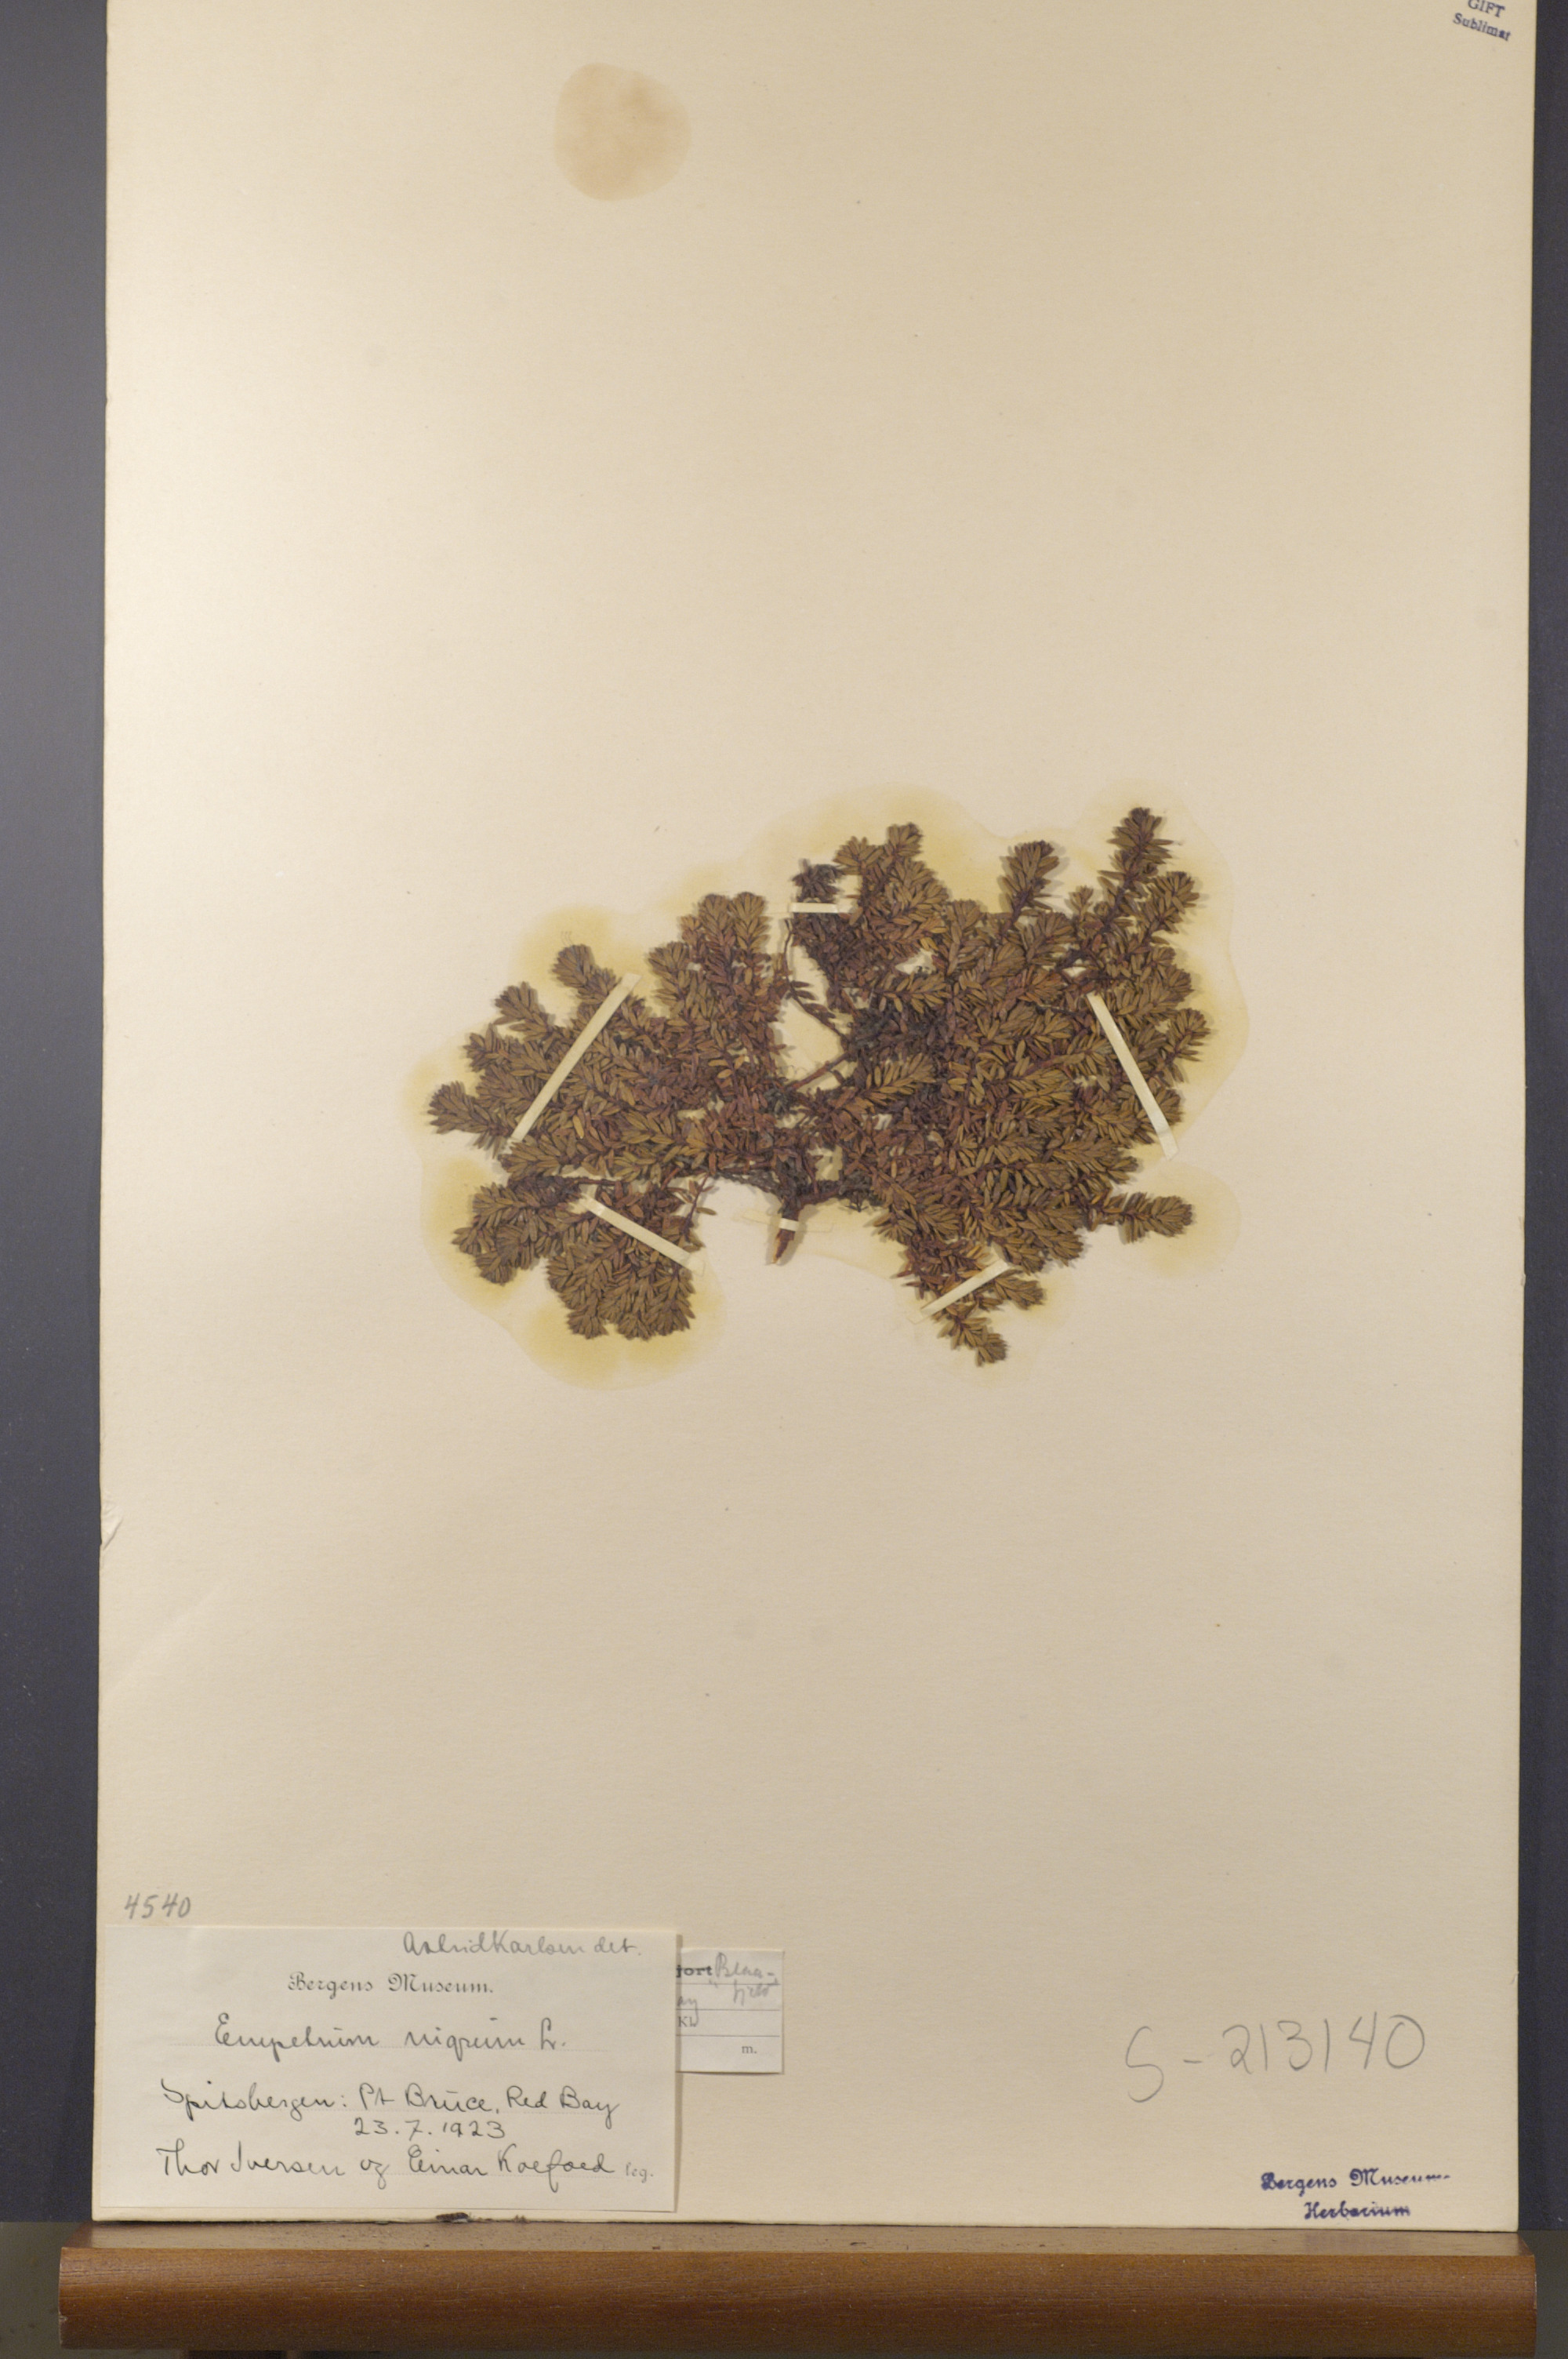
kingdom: Plantae
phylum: Tracheophyta
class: Magnoliopsida
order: Ericales
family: Ericaceae
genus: Empetrum
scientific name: Empetrum nigrum
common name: Black crowberry
